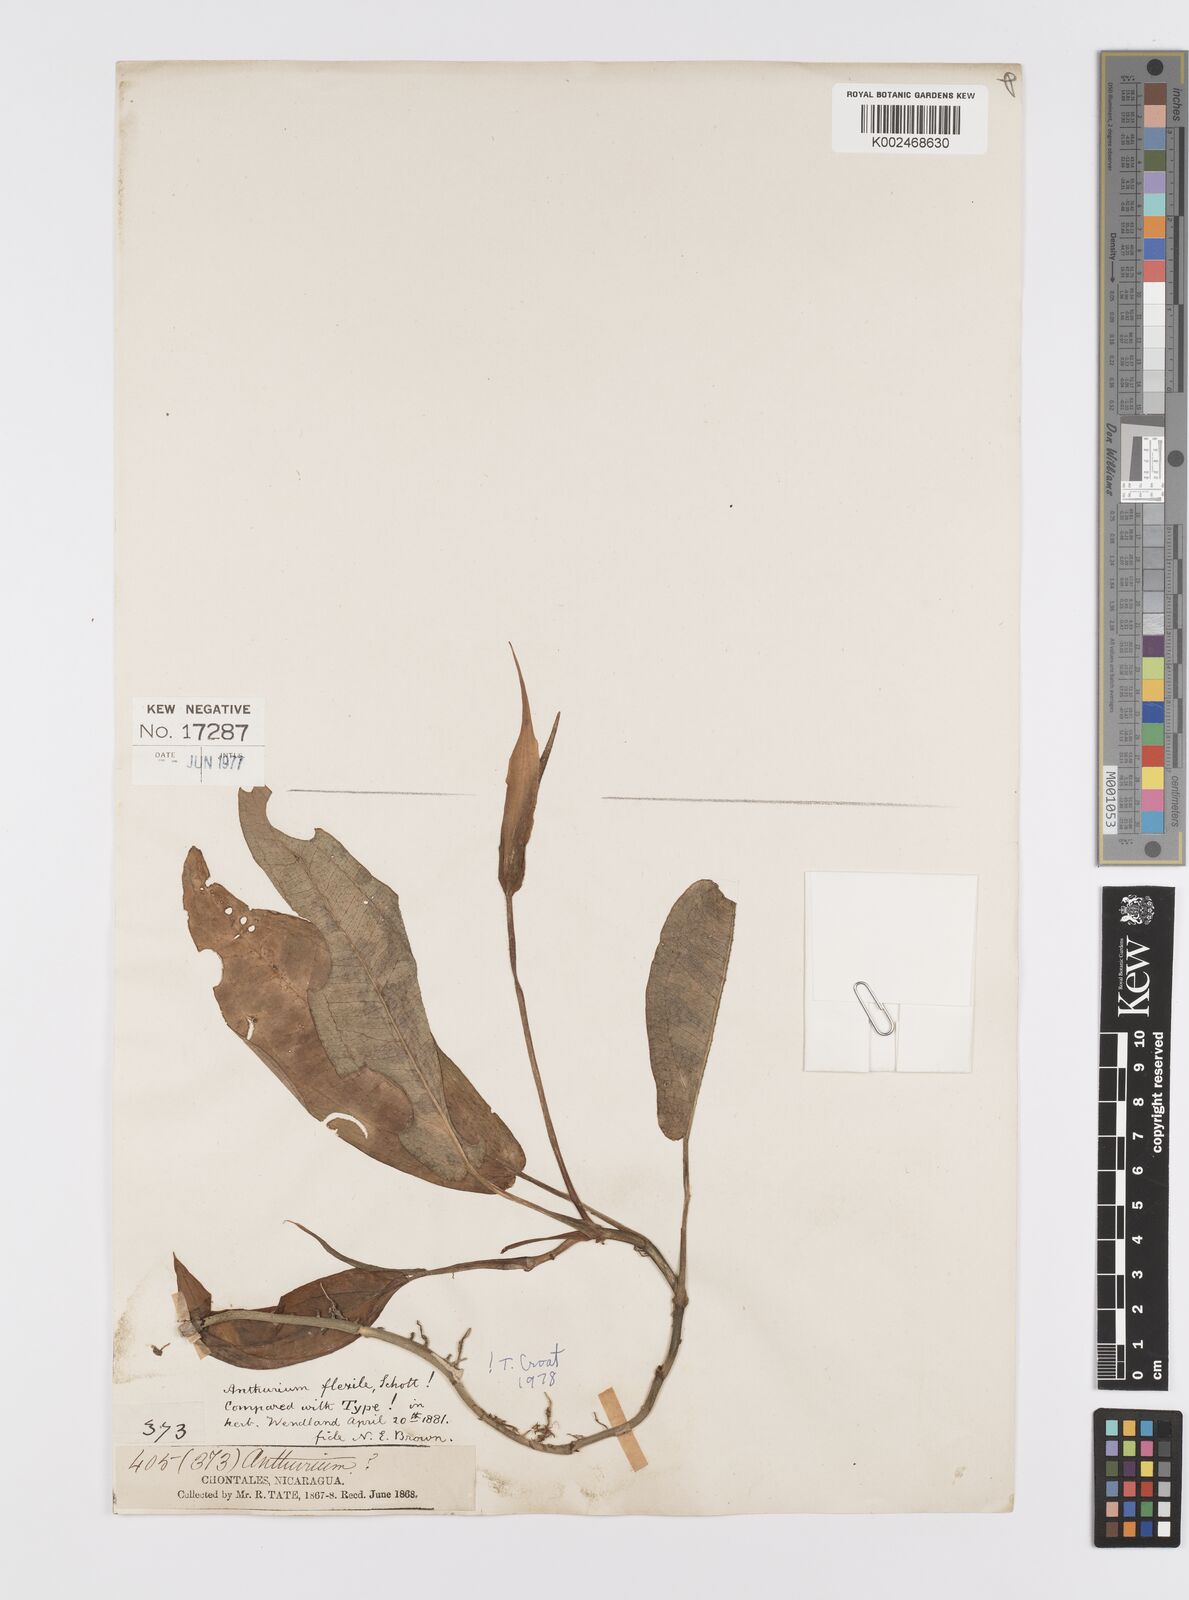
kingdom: Plantae
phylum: Tracheophyta
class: Liliopsida
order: Alismatales
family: Araceae
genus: Anthurium
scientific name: Anthurium flexile
